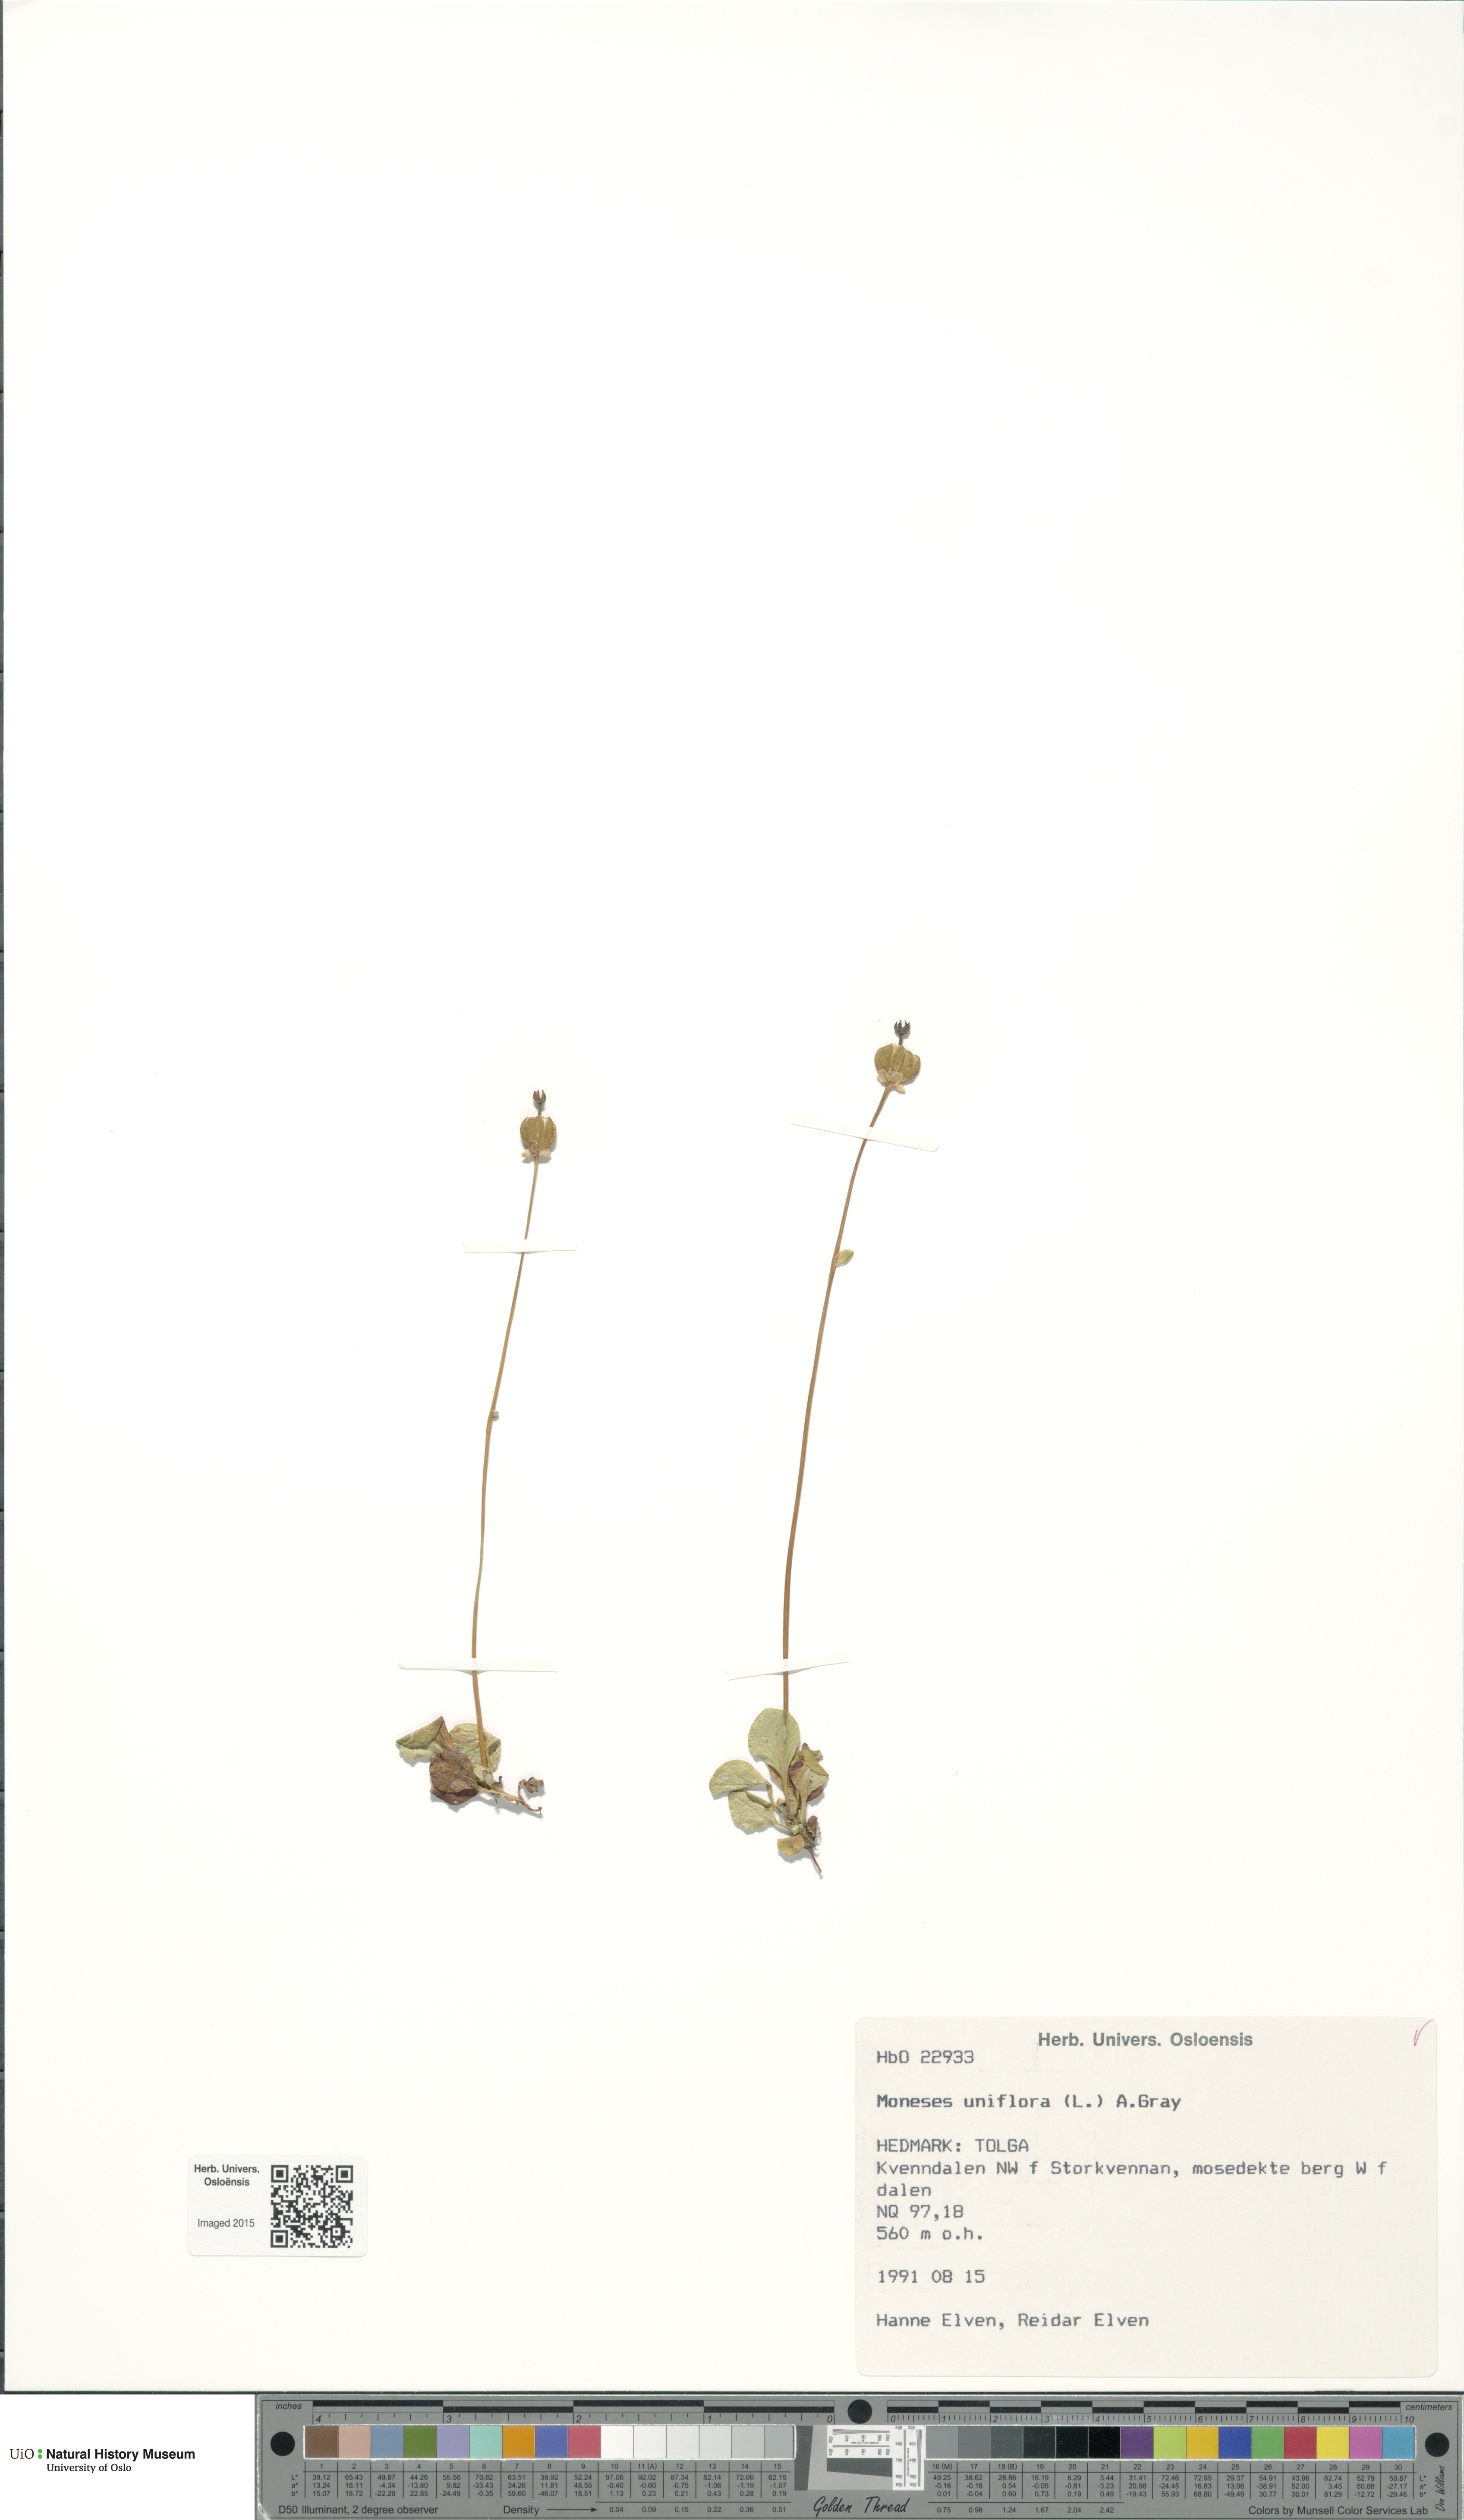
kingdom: Plantae
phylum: Tracheophyta
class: Magnoliopsida
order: Ericales
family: Ericaceae
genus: Moneses
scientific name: Moneses uniflora
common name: One-flowered wintergreen
